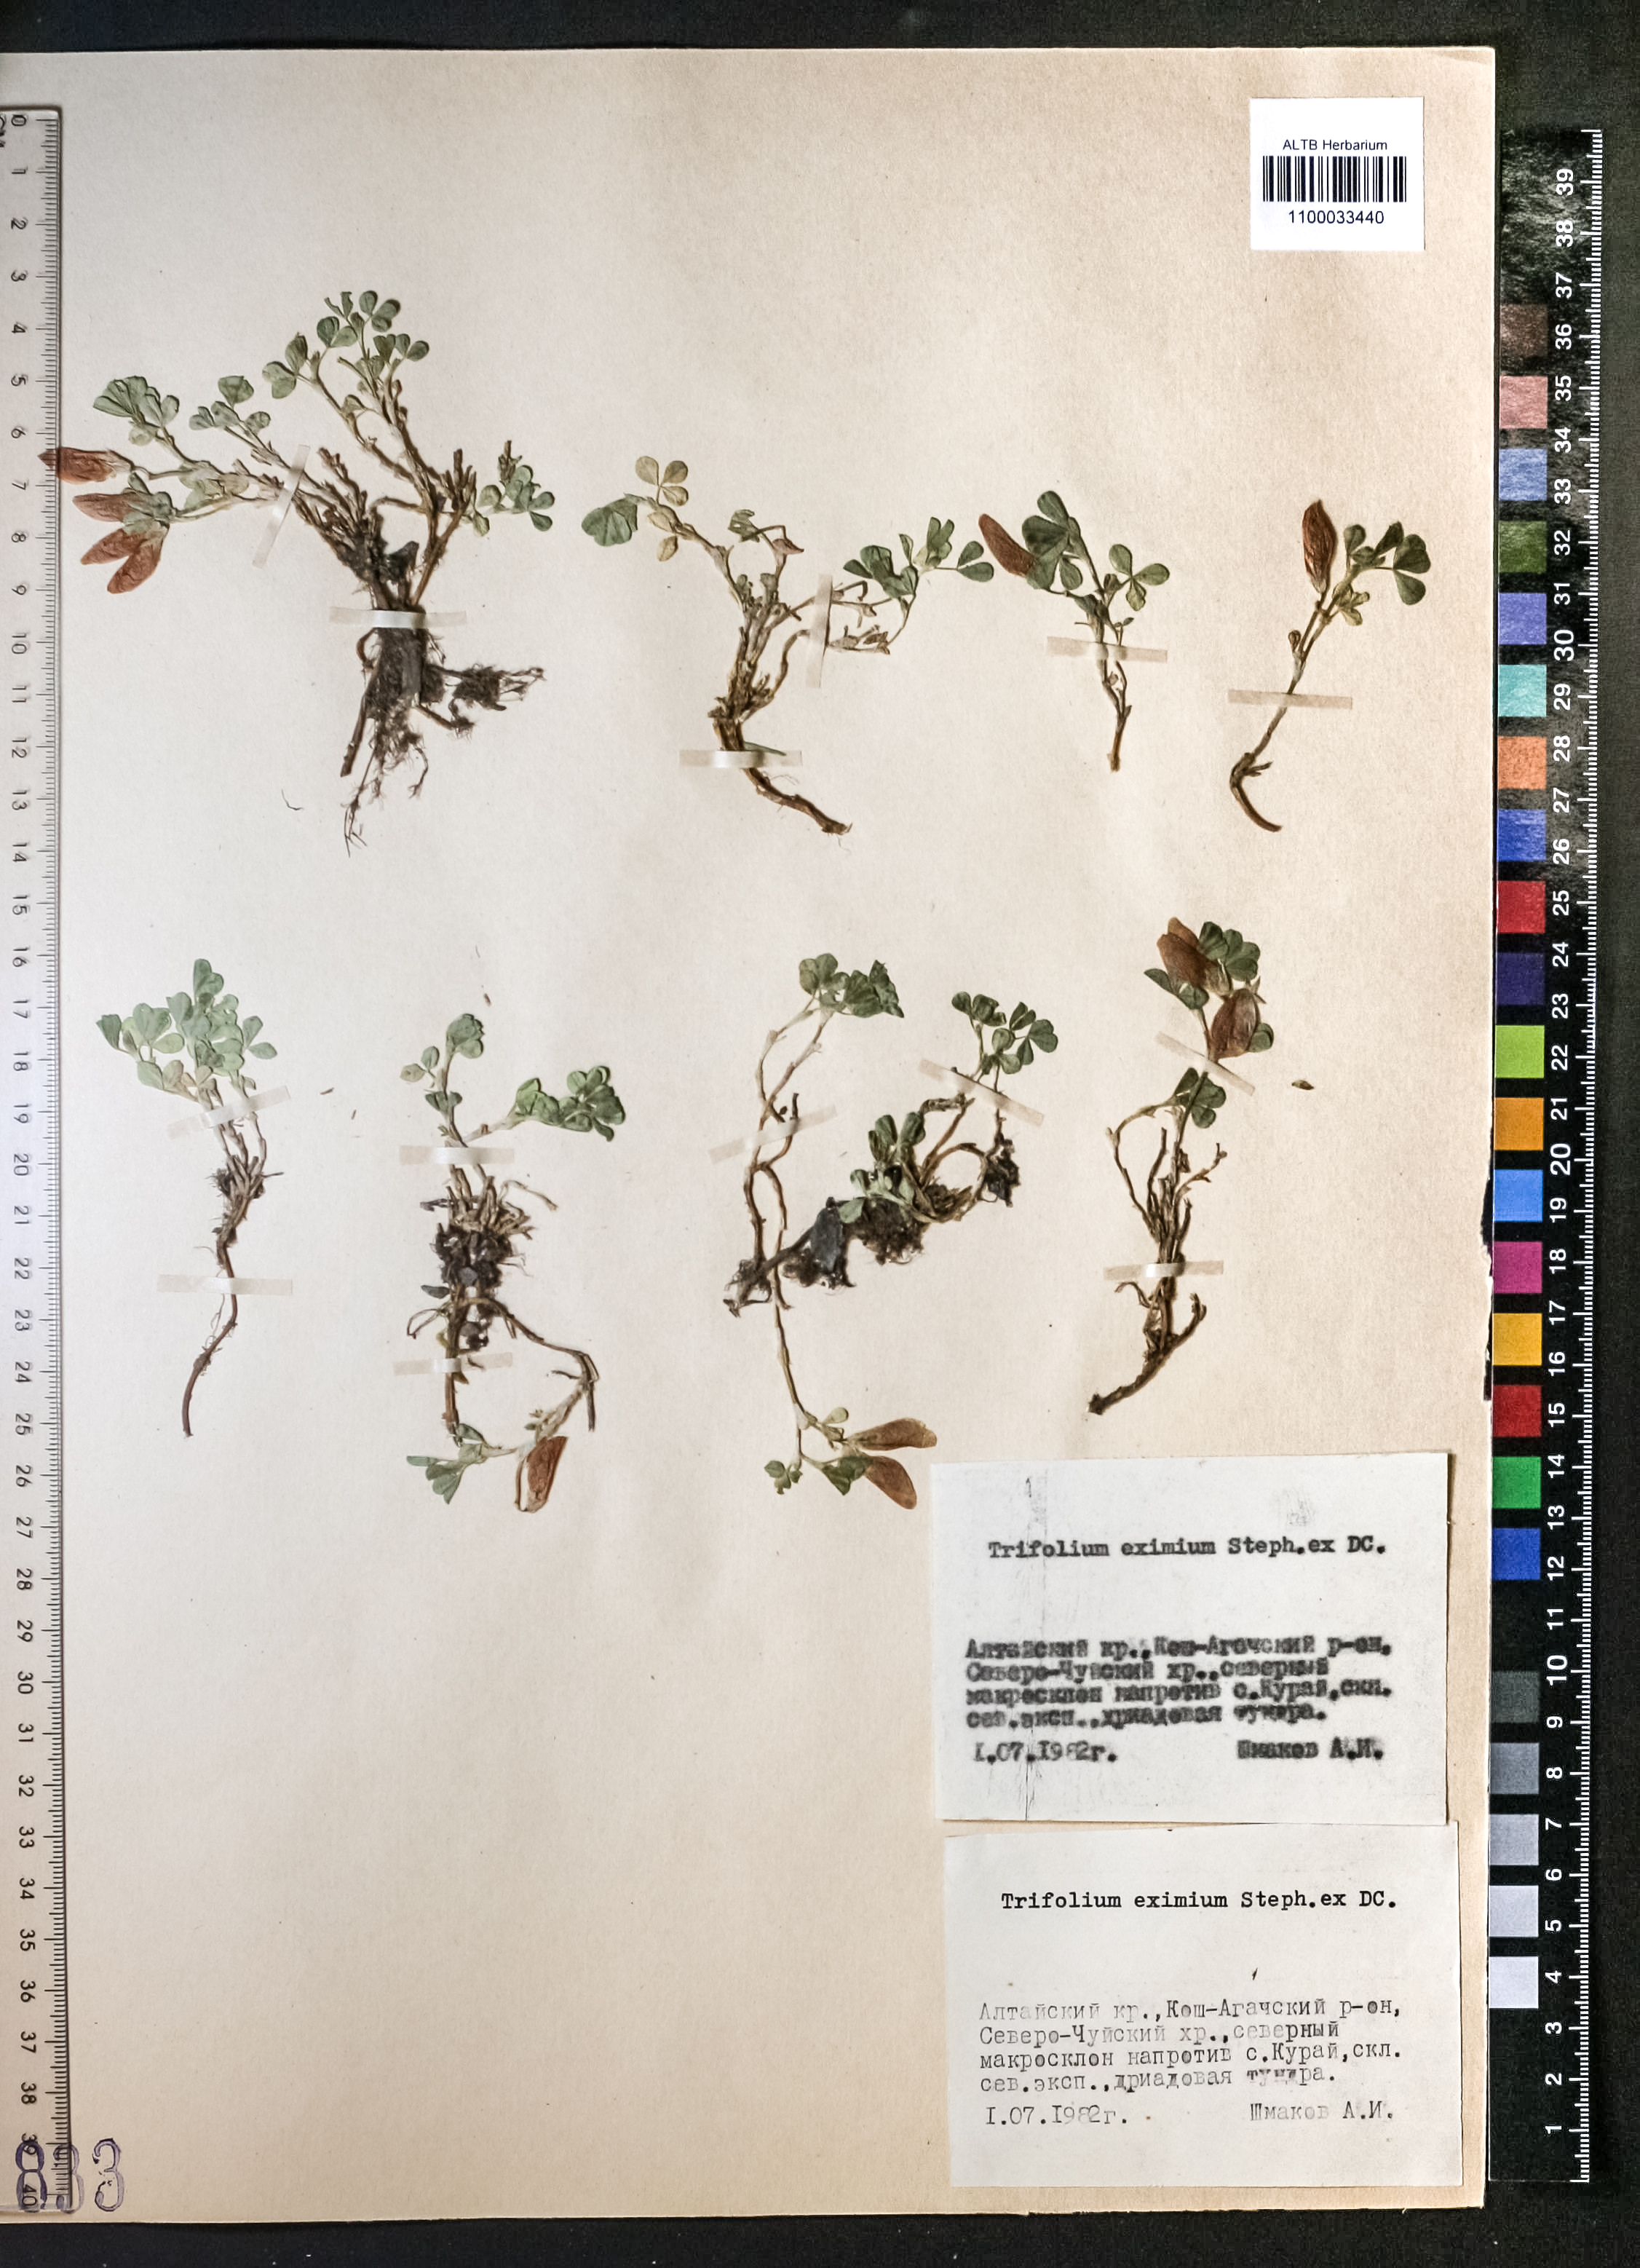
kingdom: Plantae
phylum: Tracheophyta
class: Magnoliopsida
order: Fabales
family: Fabaceae
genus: Trifolium
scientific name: Trifolium eximium
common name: Excellent clover
